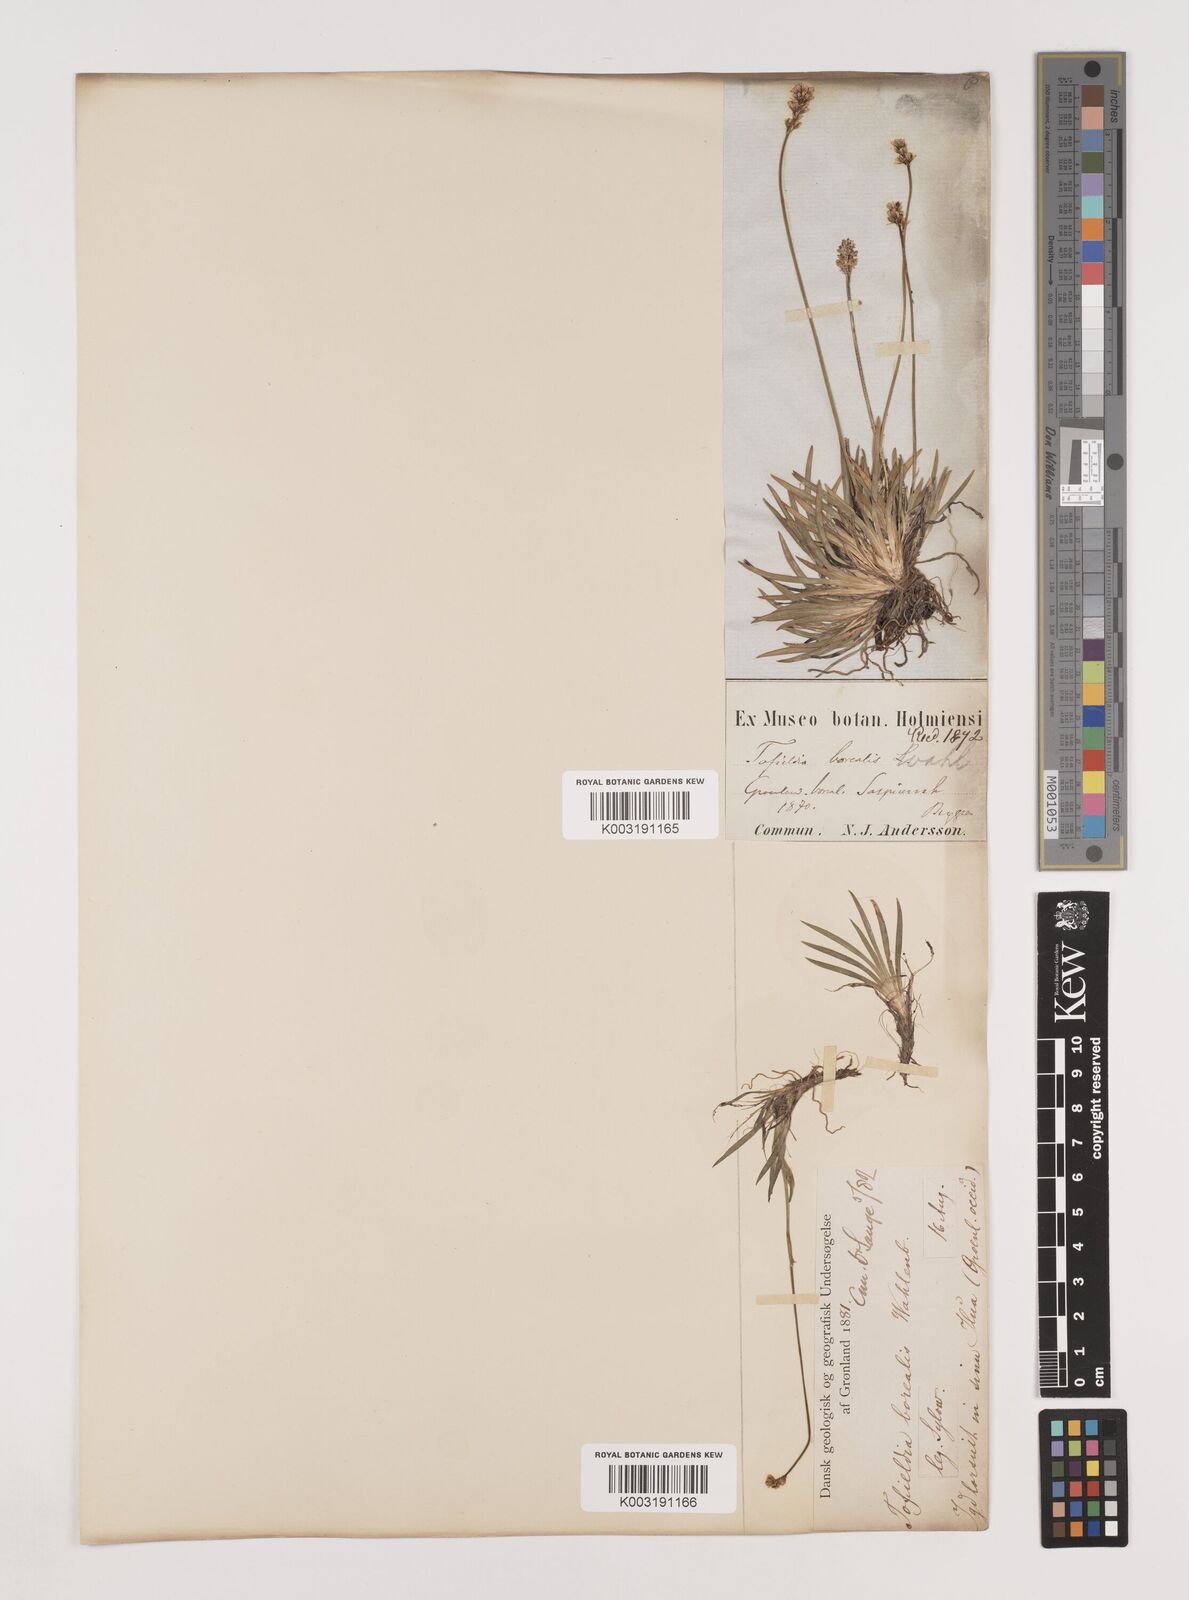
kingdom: Plantae
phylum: Tracheophyta
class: Liliopsida
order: Alismatales
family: Tofieldiaceae
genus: Tofieldia
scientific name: Tofieldia pusilla
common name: Scottish false asphodel
